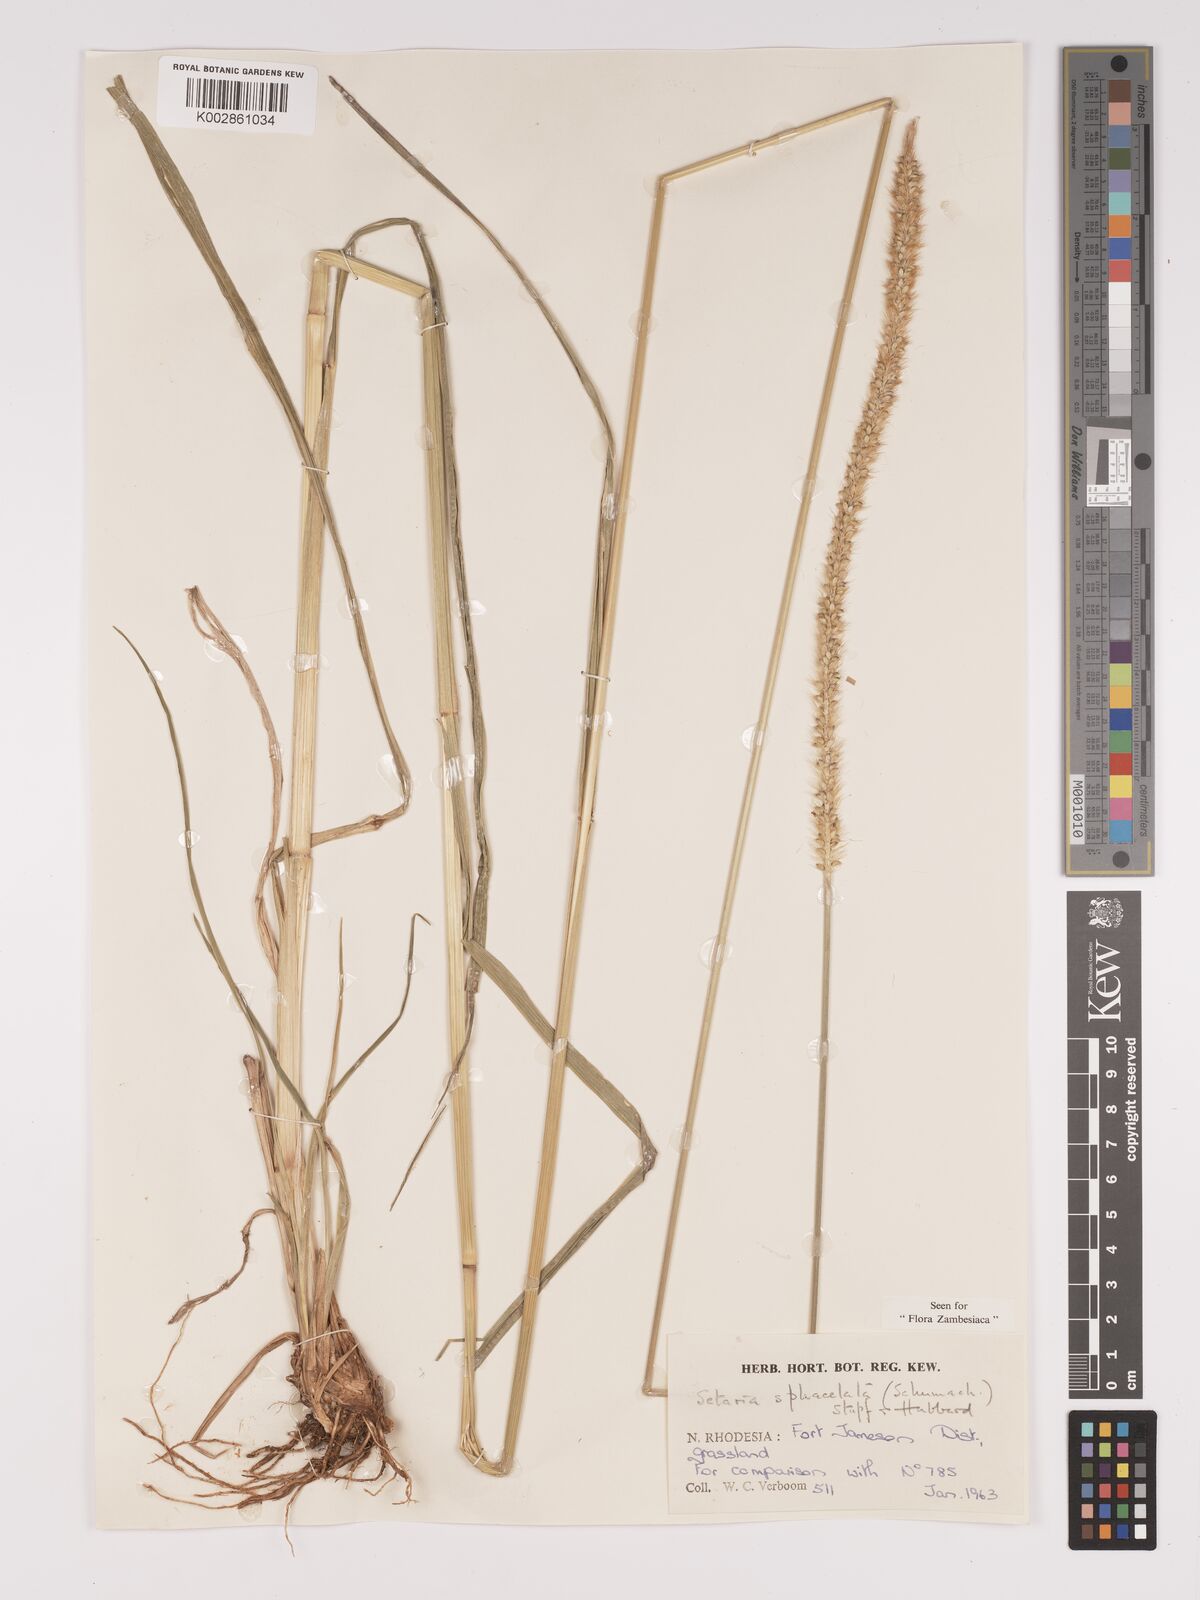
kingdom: Plantae
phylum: Tracheophyta
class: Liliopsida
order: Poales
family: Poaceae
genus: Setaria
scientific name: Setaria sphacelata
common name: African bristlegrass
